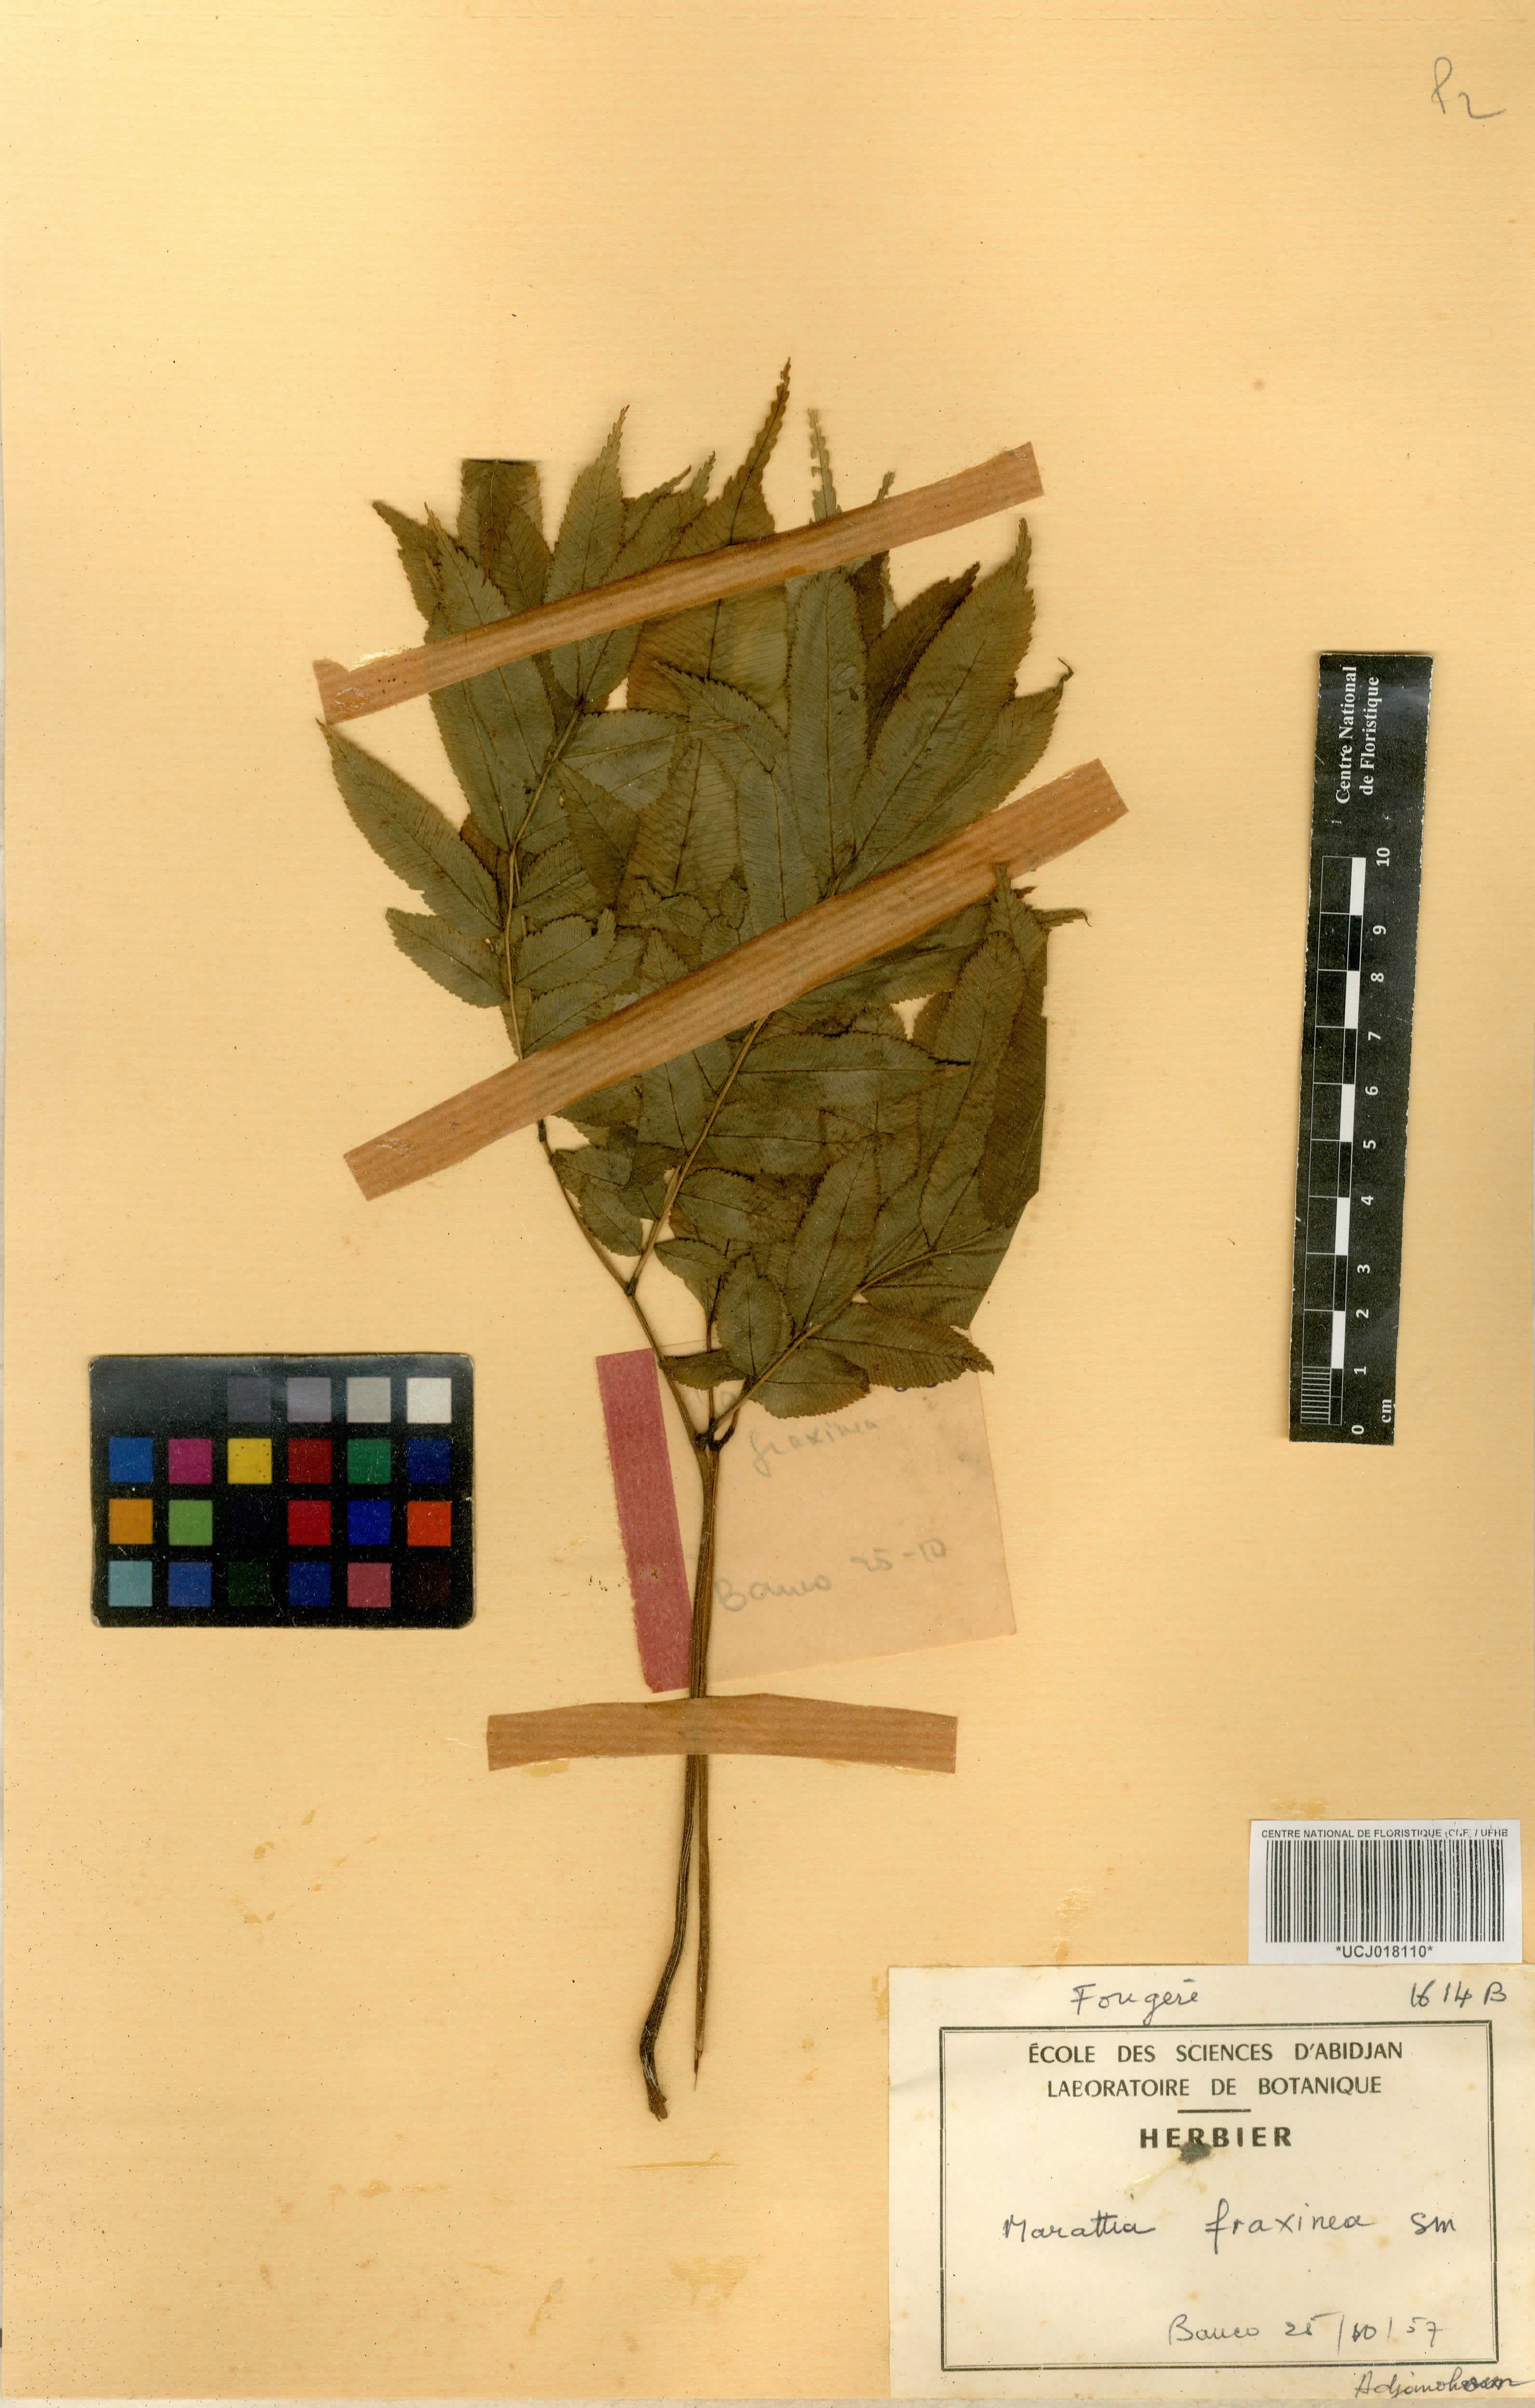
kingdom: Plantae
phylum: Tracheophyta
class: Polypodiopsida
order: Marattiales
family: Marattiaceae
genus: Ptisana
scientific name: Ptisana fraxinea
